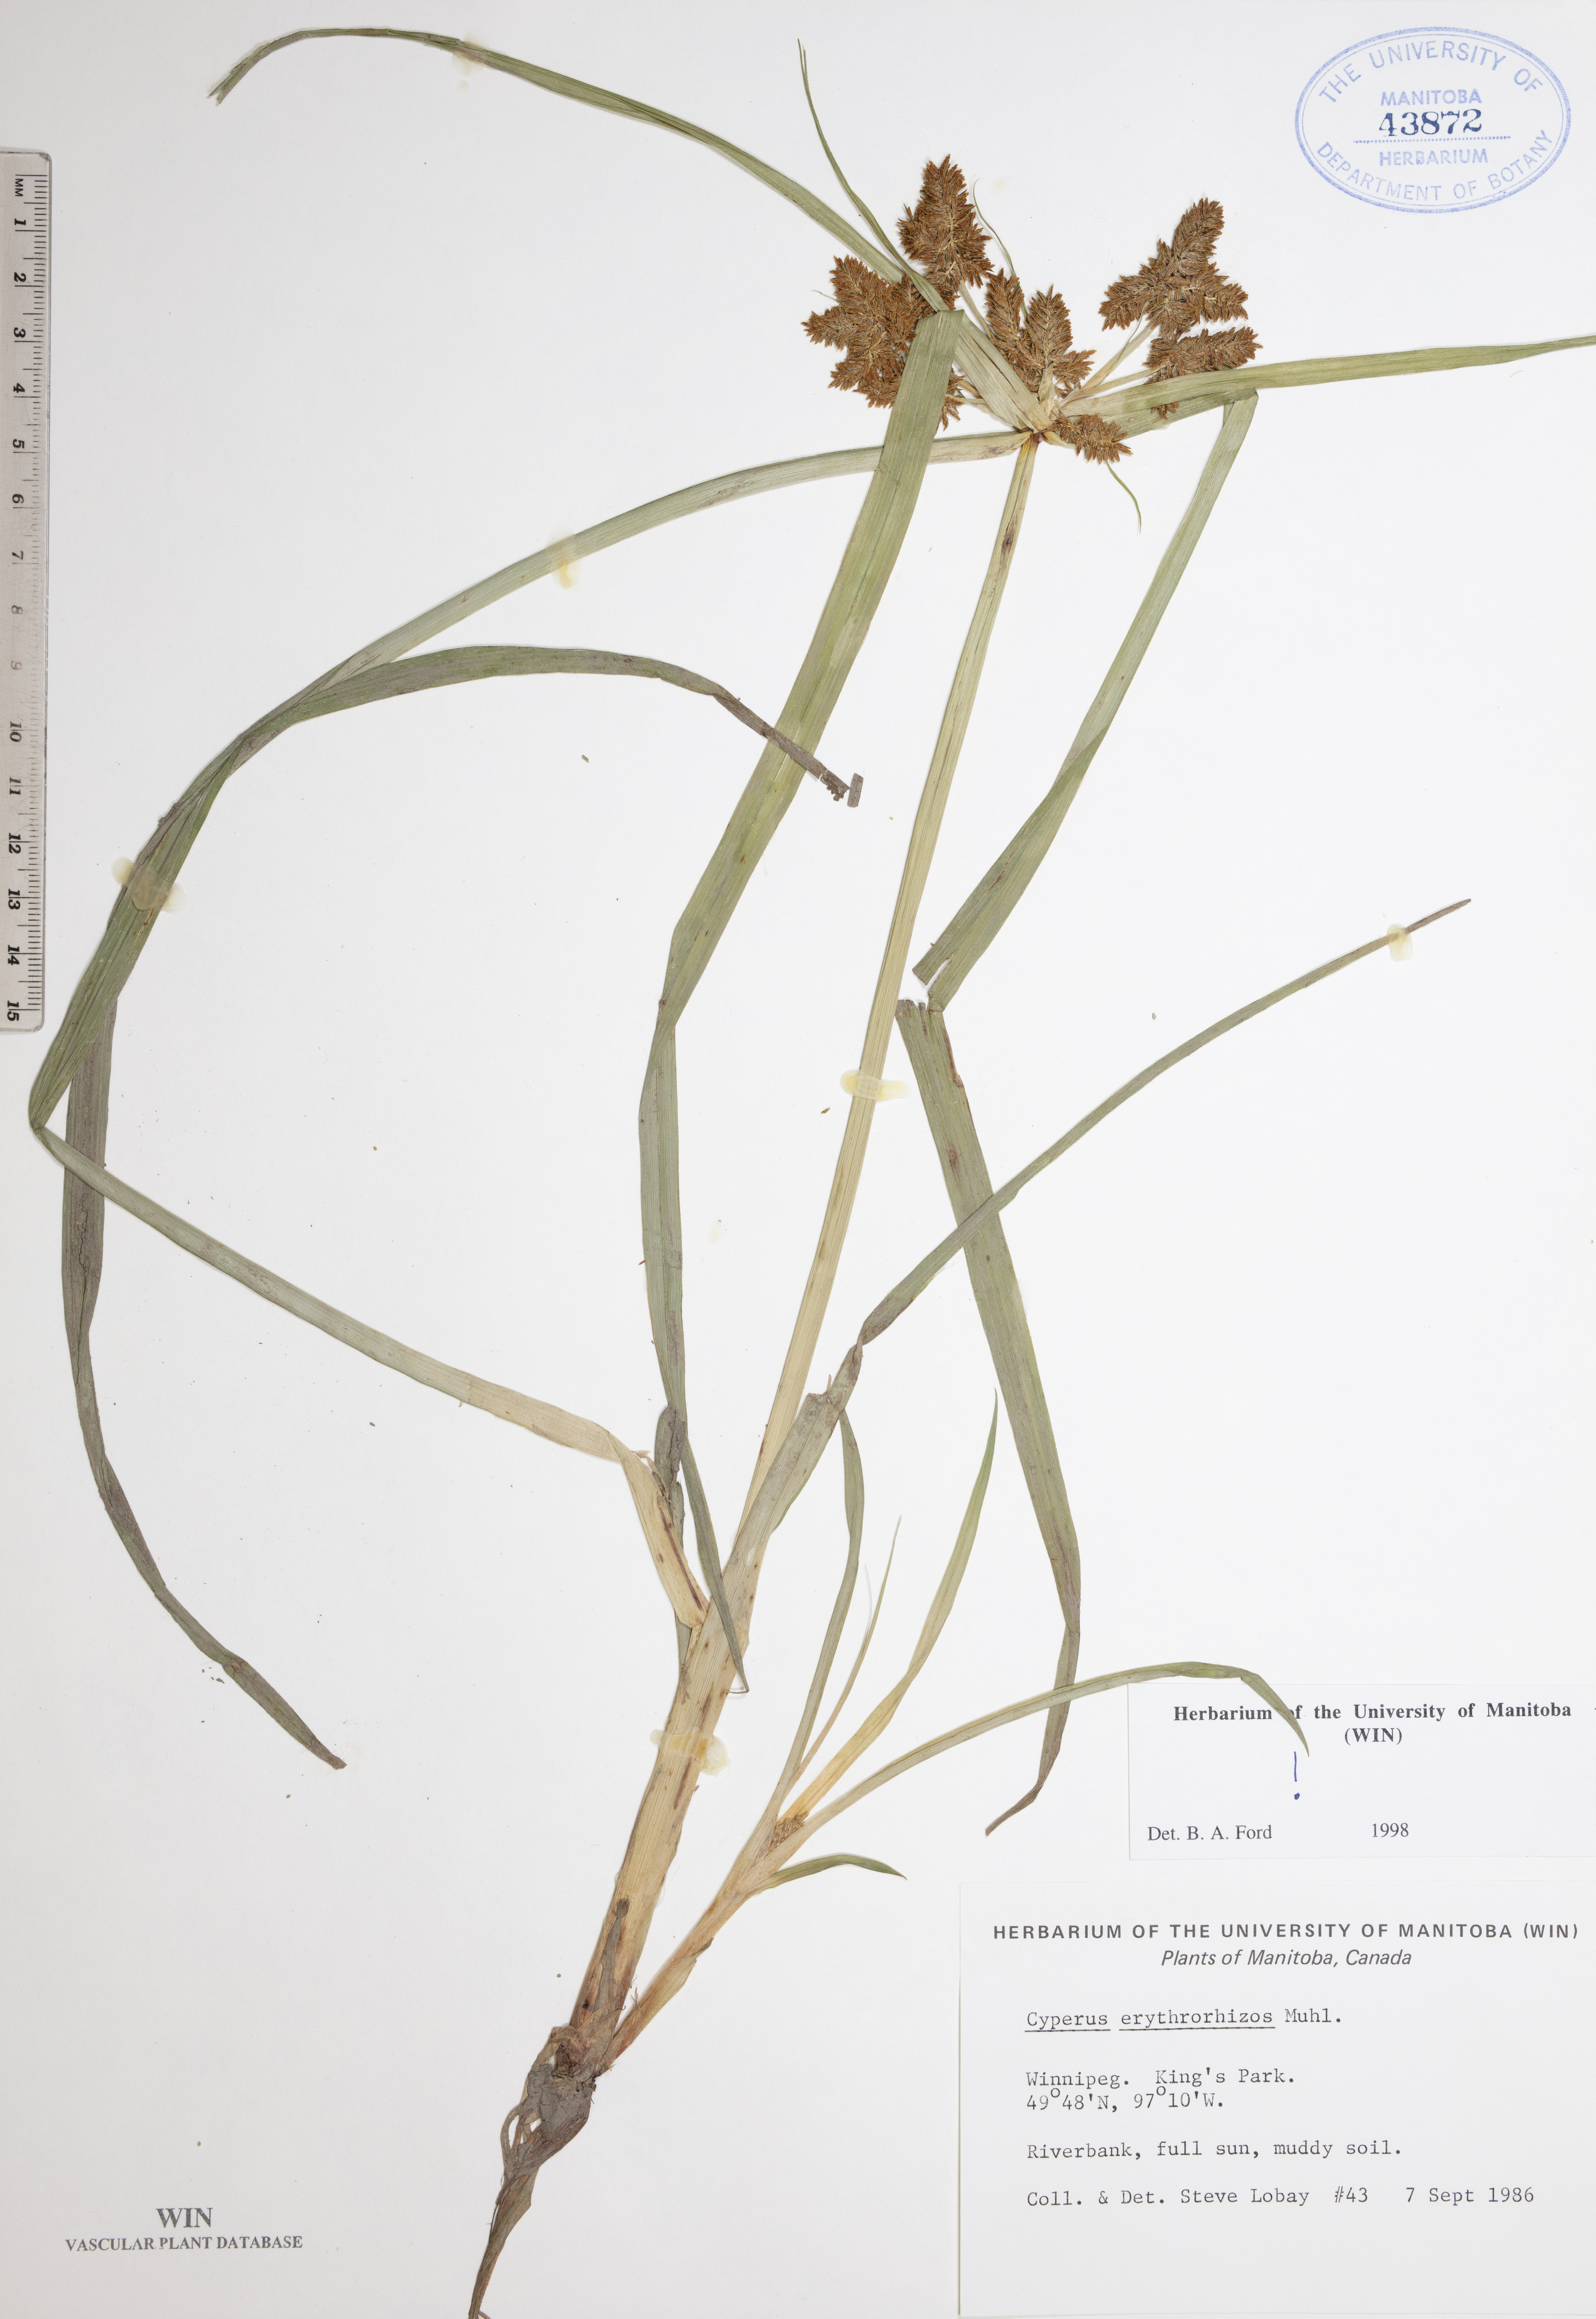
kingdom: Plantae
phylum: Tracheophyta
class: Liliopsida
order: Poales
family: Cyperaceae
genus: Cyperus
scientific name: Cyperus erythrorhizos
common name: Red-root flat sedge
